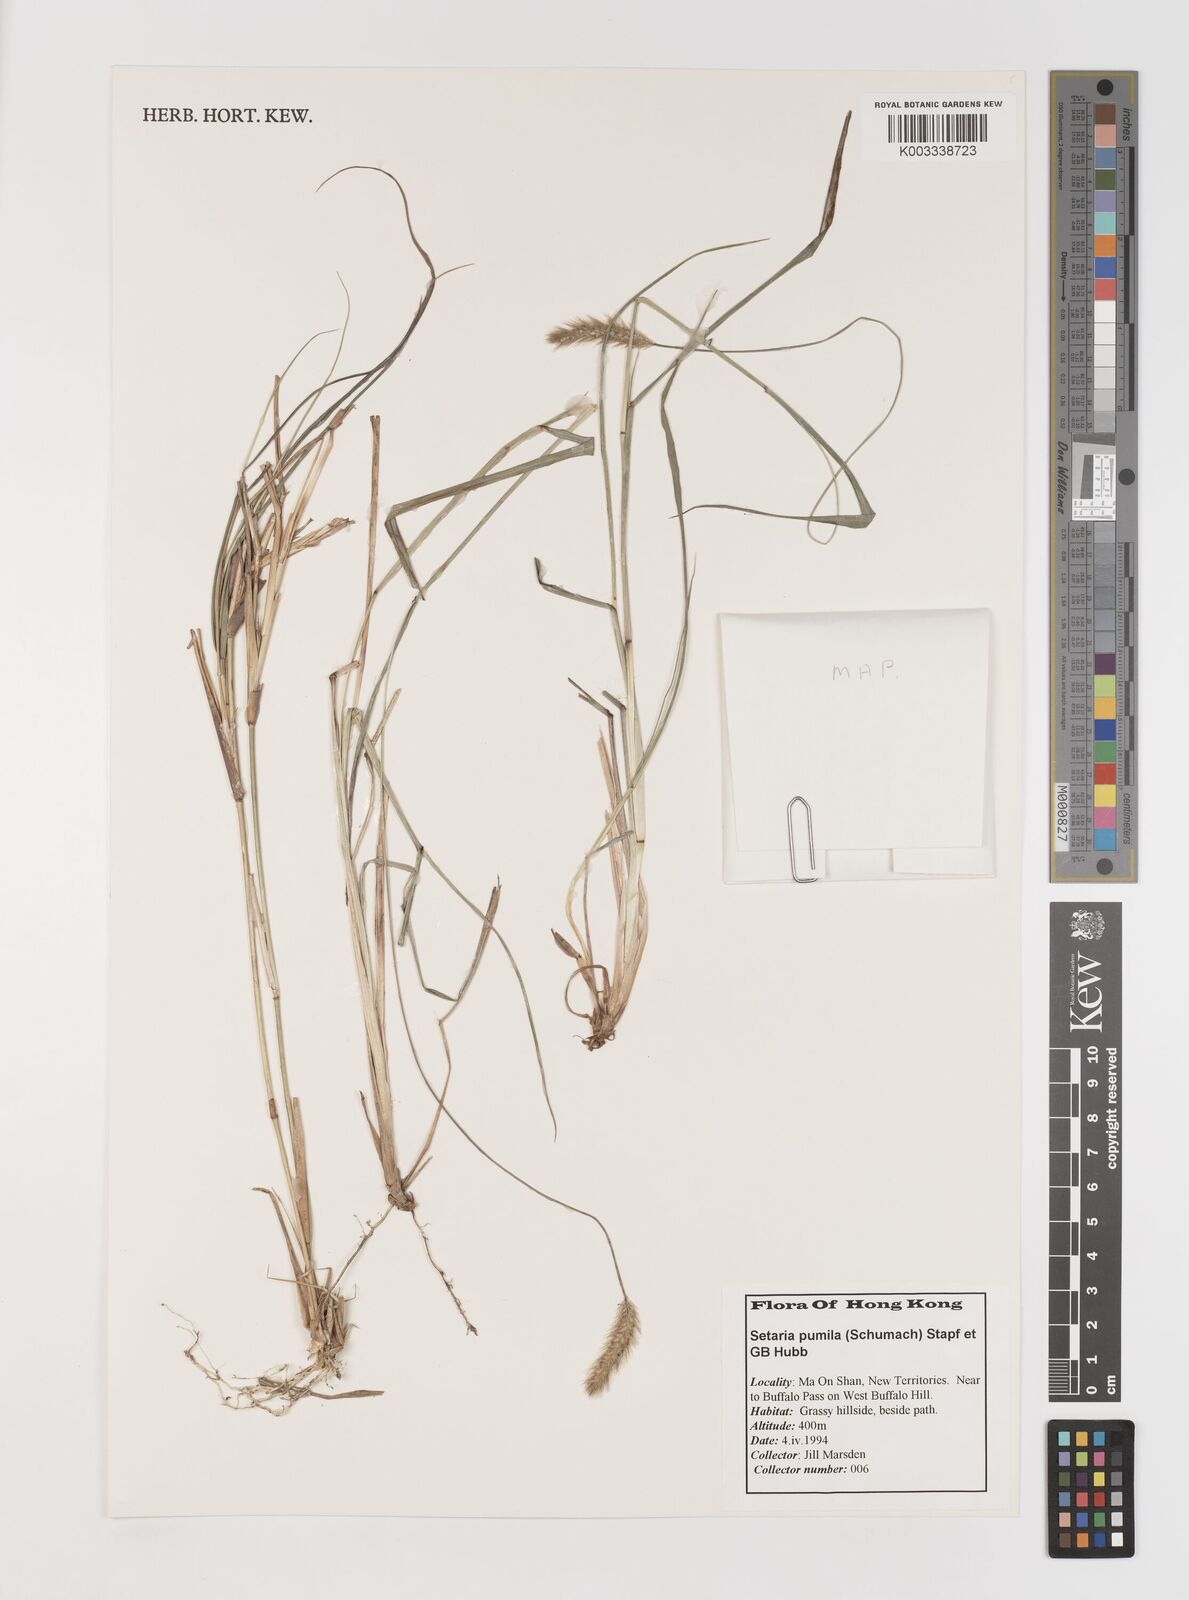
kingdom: Plantae
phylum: Tracheophyta
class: Liliopsida
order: Poales
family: Poaceae
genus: Setaria
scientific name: Setaria parviflora
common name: Knotroot bristle-grass
